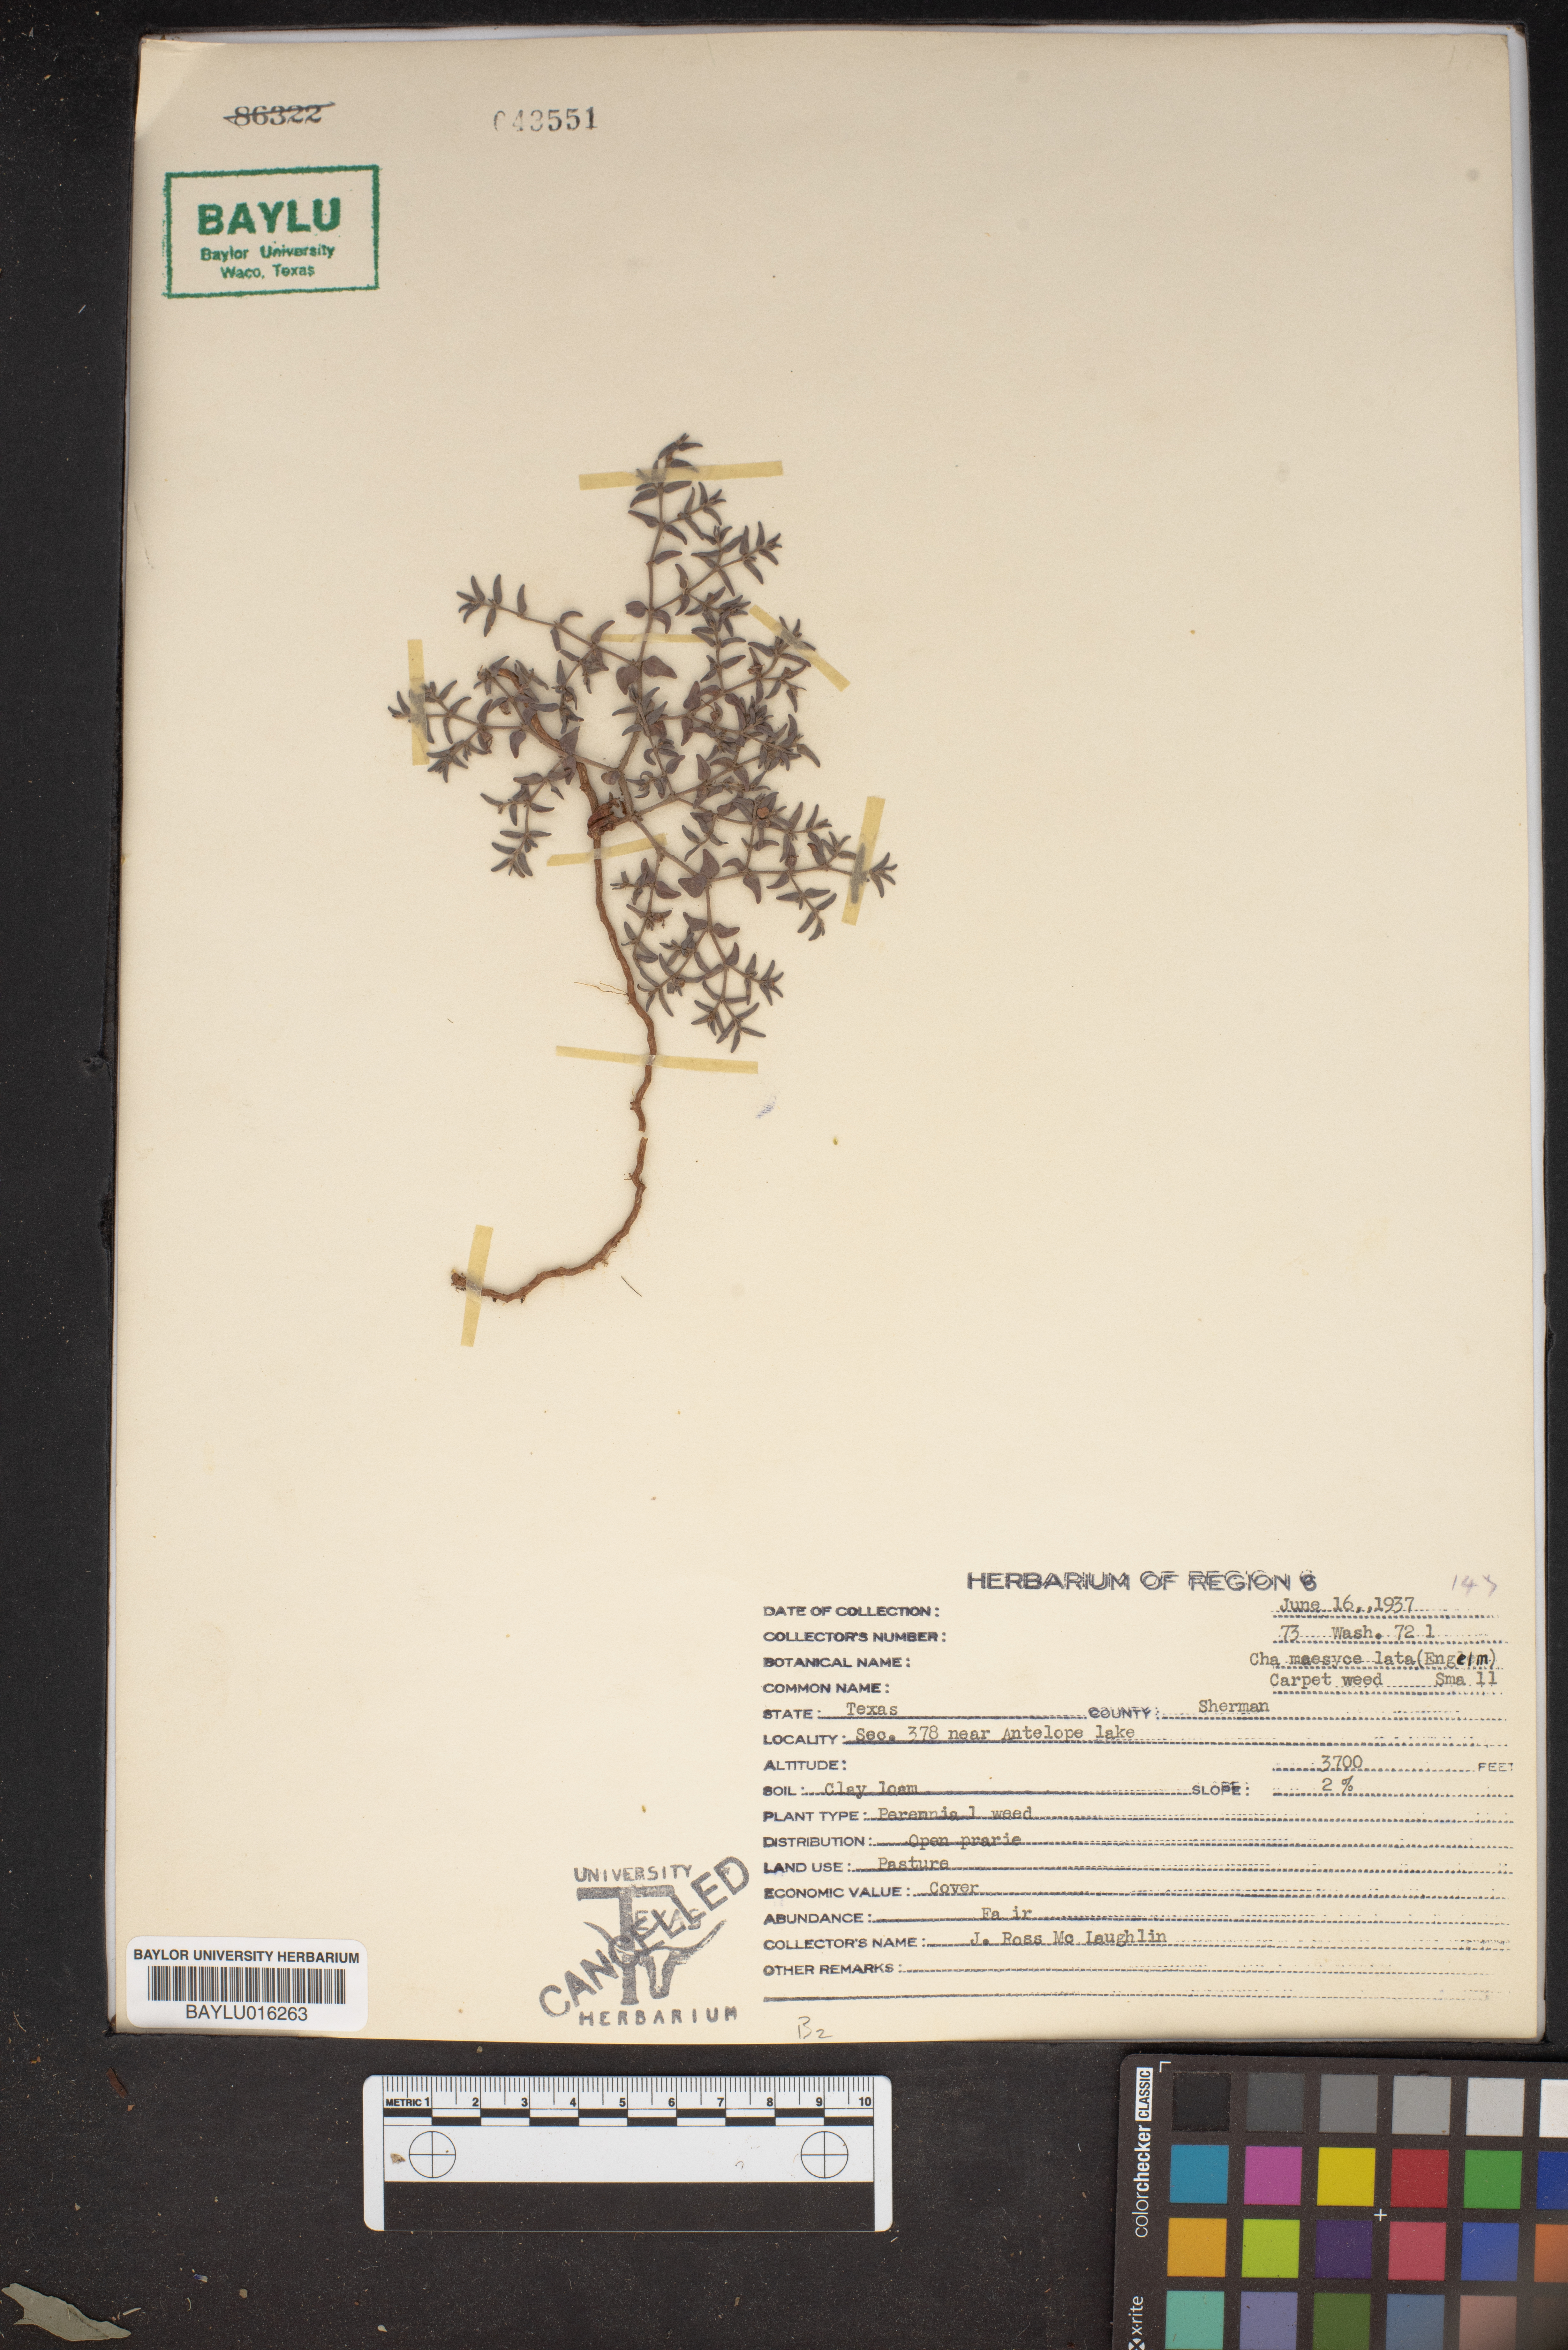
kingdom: Plantae
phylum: Tracheophyta
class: Magnoliopsida
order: Malpighiales
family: Euphorbiaceae
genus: Euphorbia
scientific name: Euphorbia lata
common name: Hoary euphorbia
